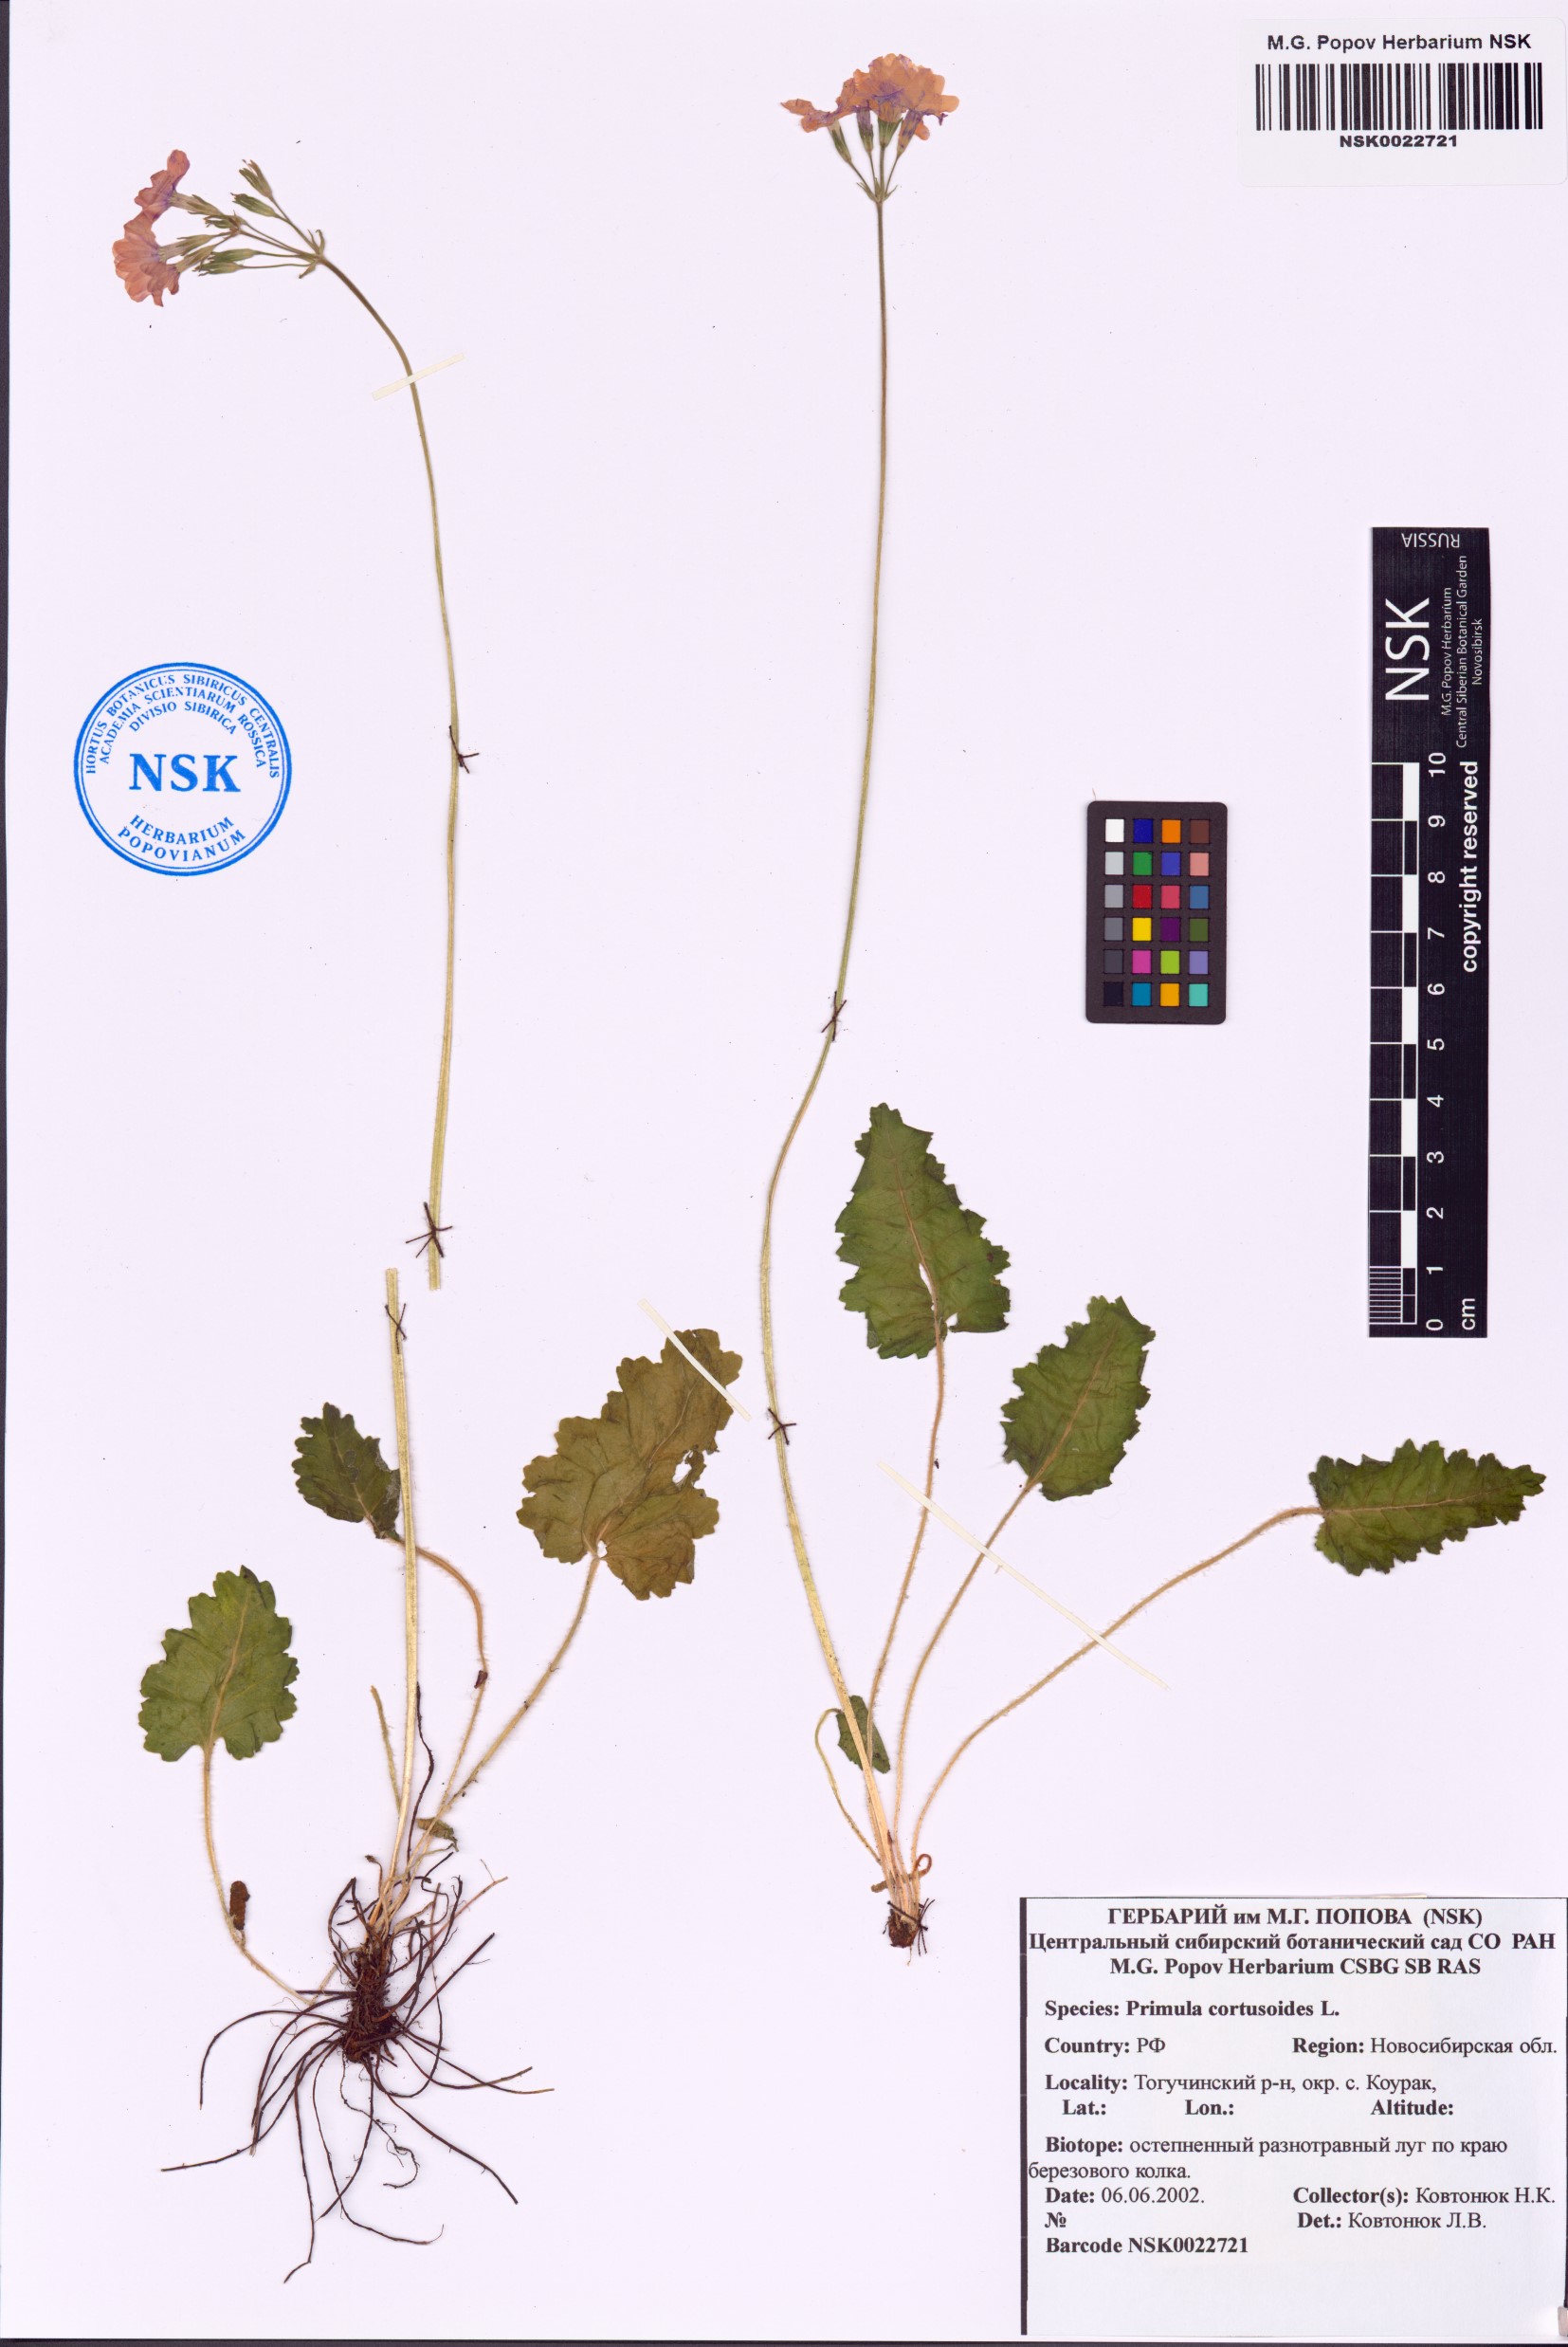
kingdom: Plantae
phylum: Tracheophyta
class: Magnoliopsida
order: Ericales
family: Primulaceae
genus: Primula
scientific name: Primula cortusoides
